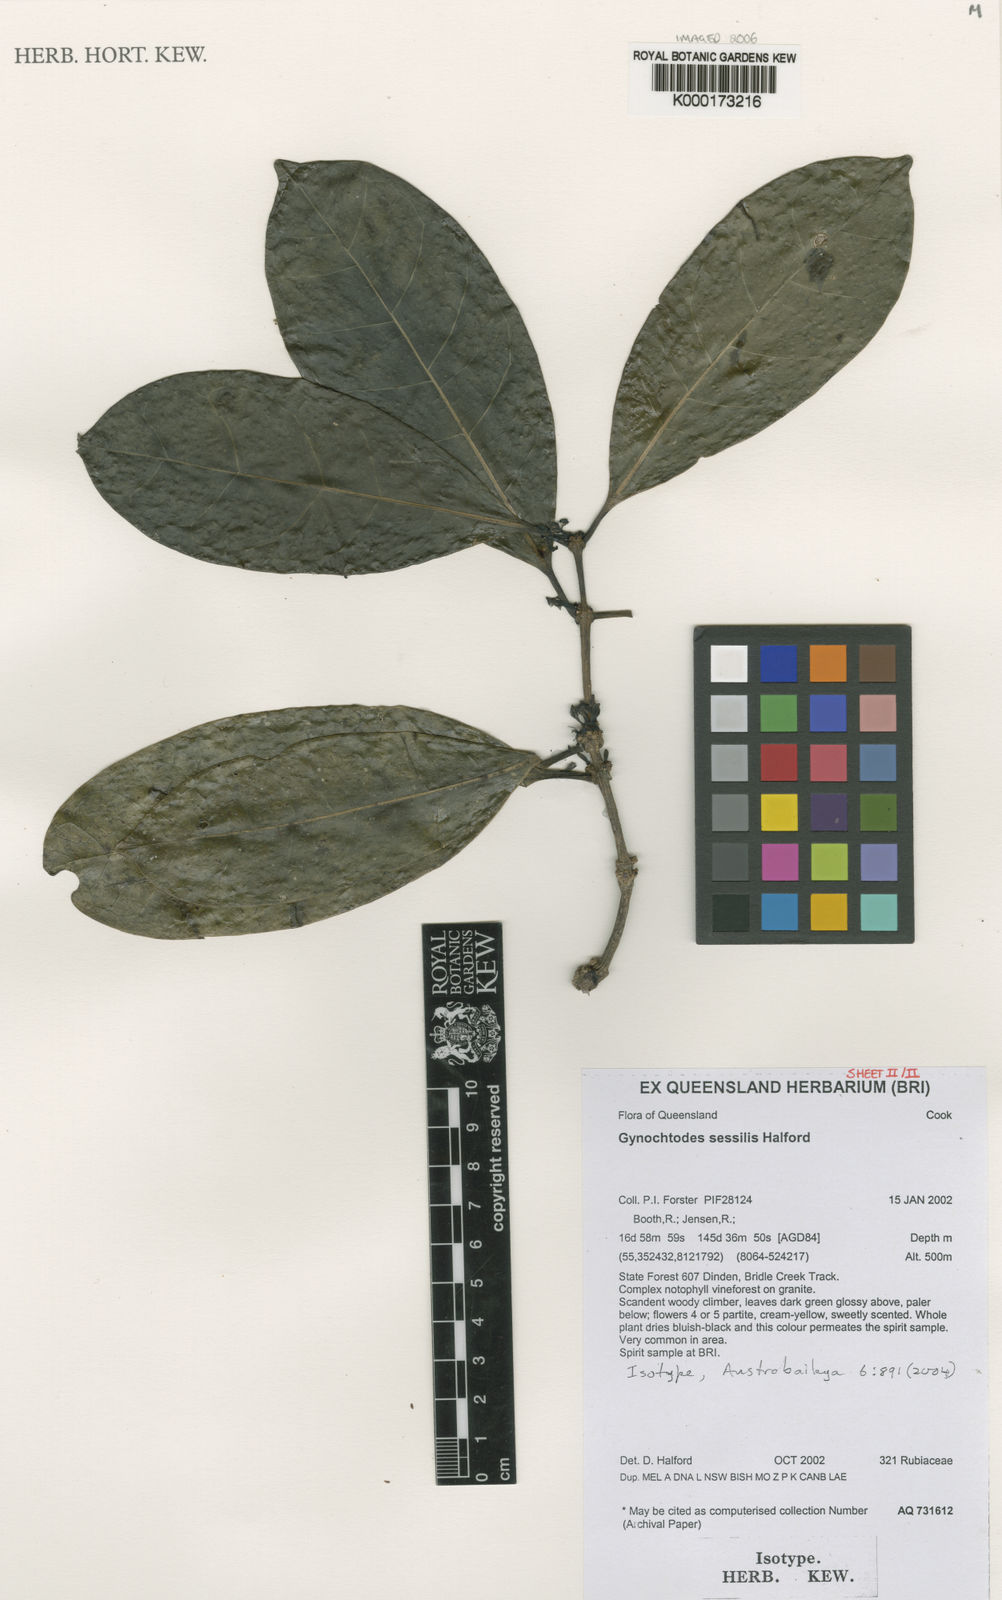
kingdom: Plantae
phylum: Tracheophyta
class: Magnoliopsida
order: Gentianales
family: Rubiaceae
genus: Gynochthodes
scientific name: Gynochthodes sessilis
